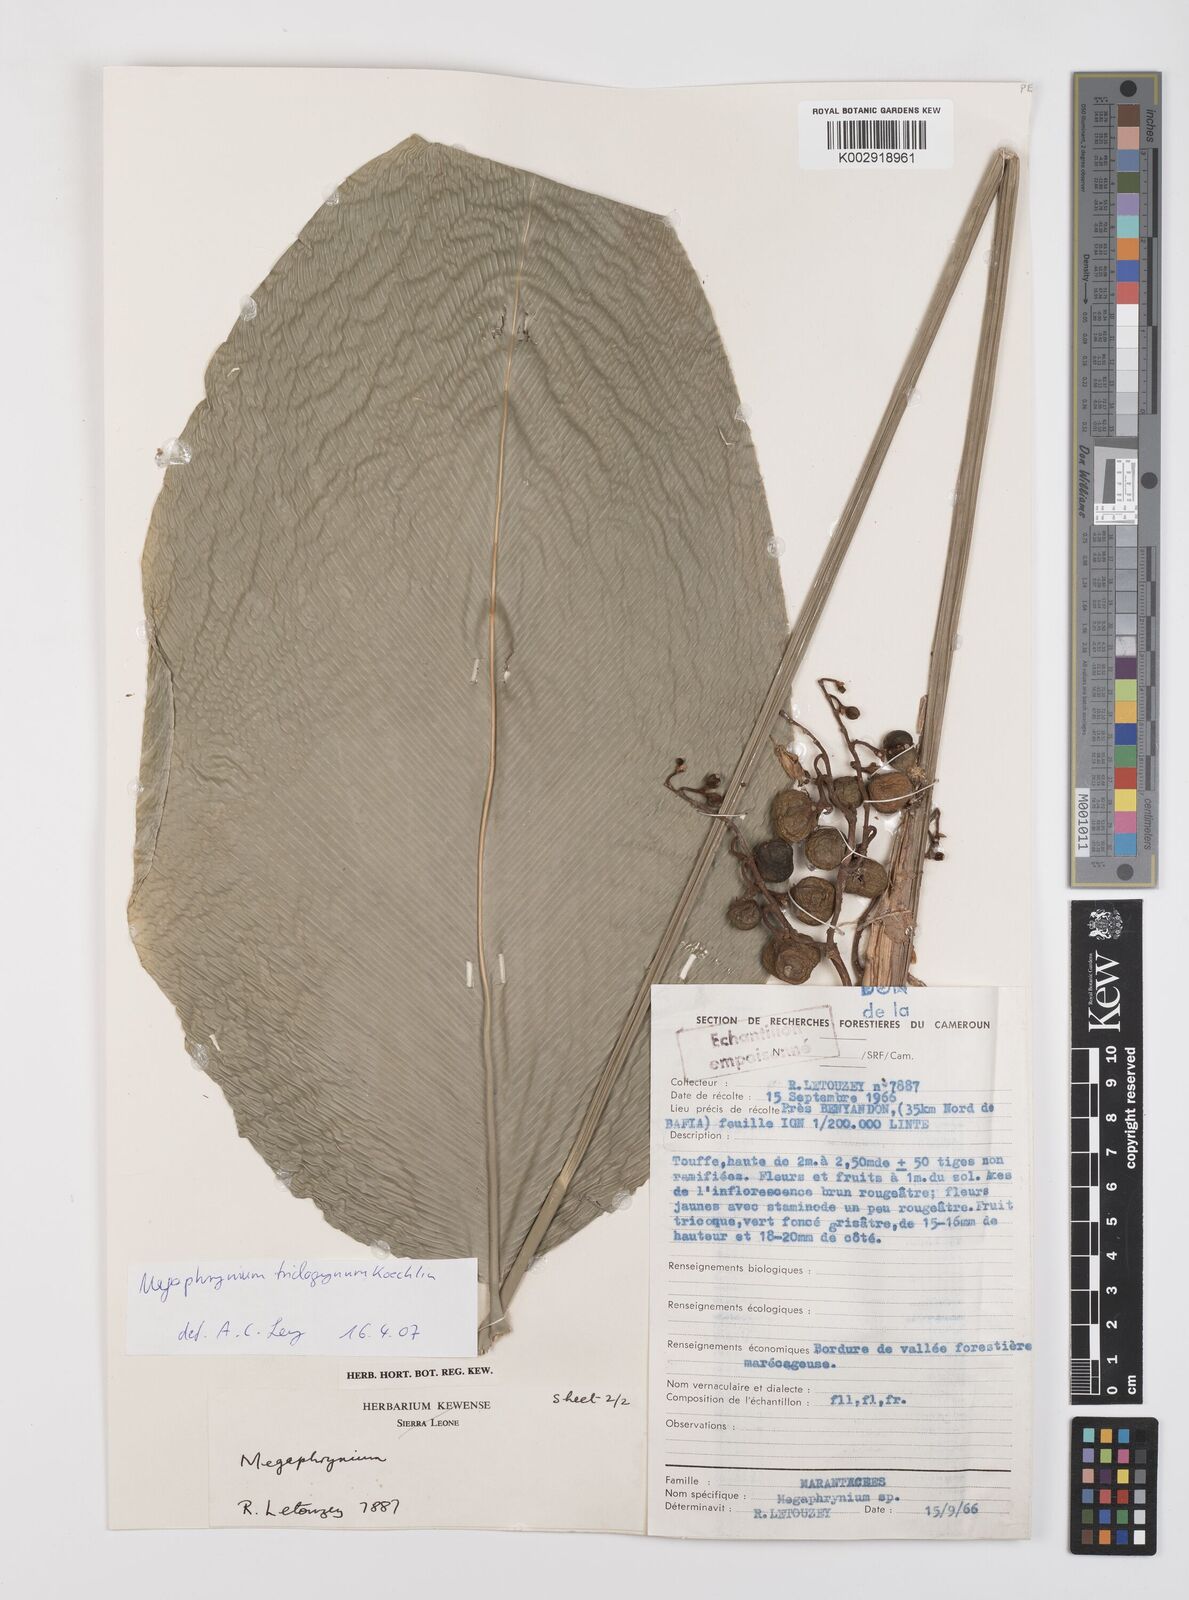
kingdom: Plantae
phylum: Tracheophyta
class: Liliopsida
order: Zingiberales
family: Marantaceae
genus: Megaphrynium
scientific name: Megaphrynium velutinum
